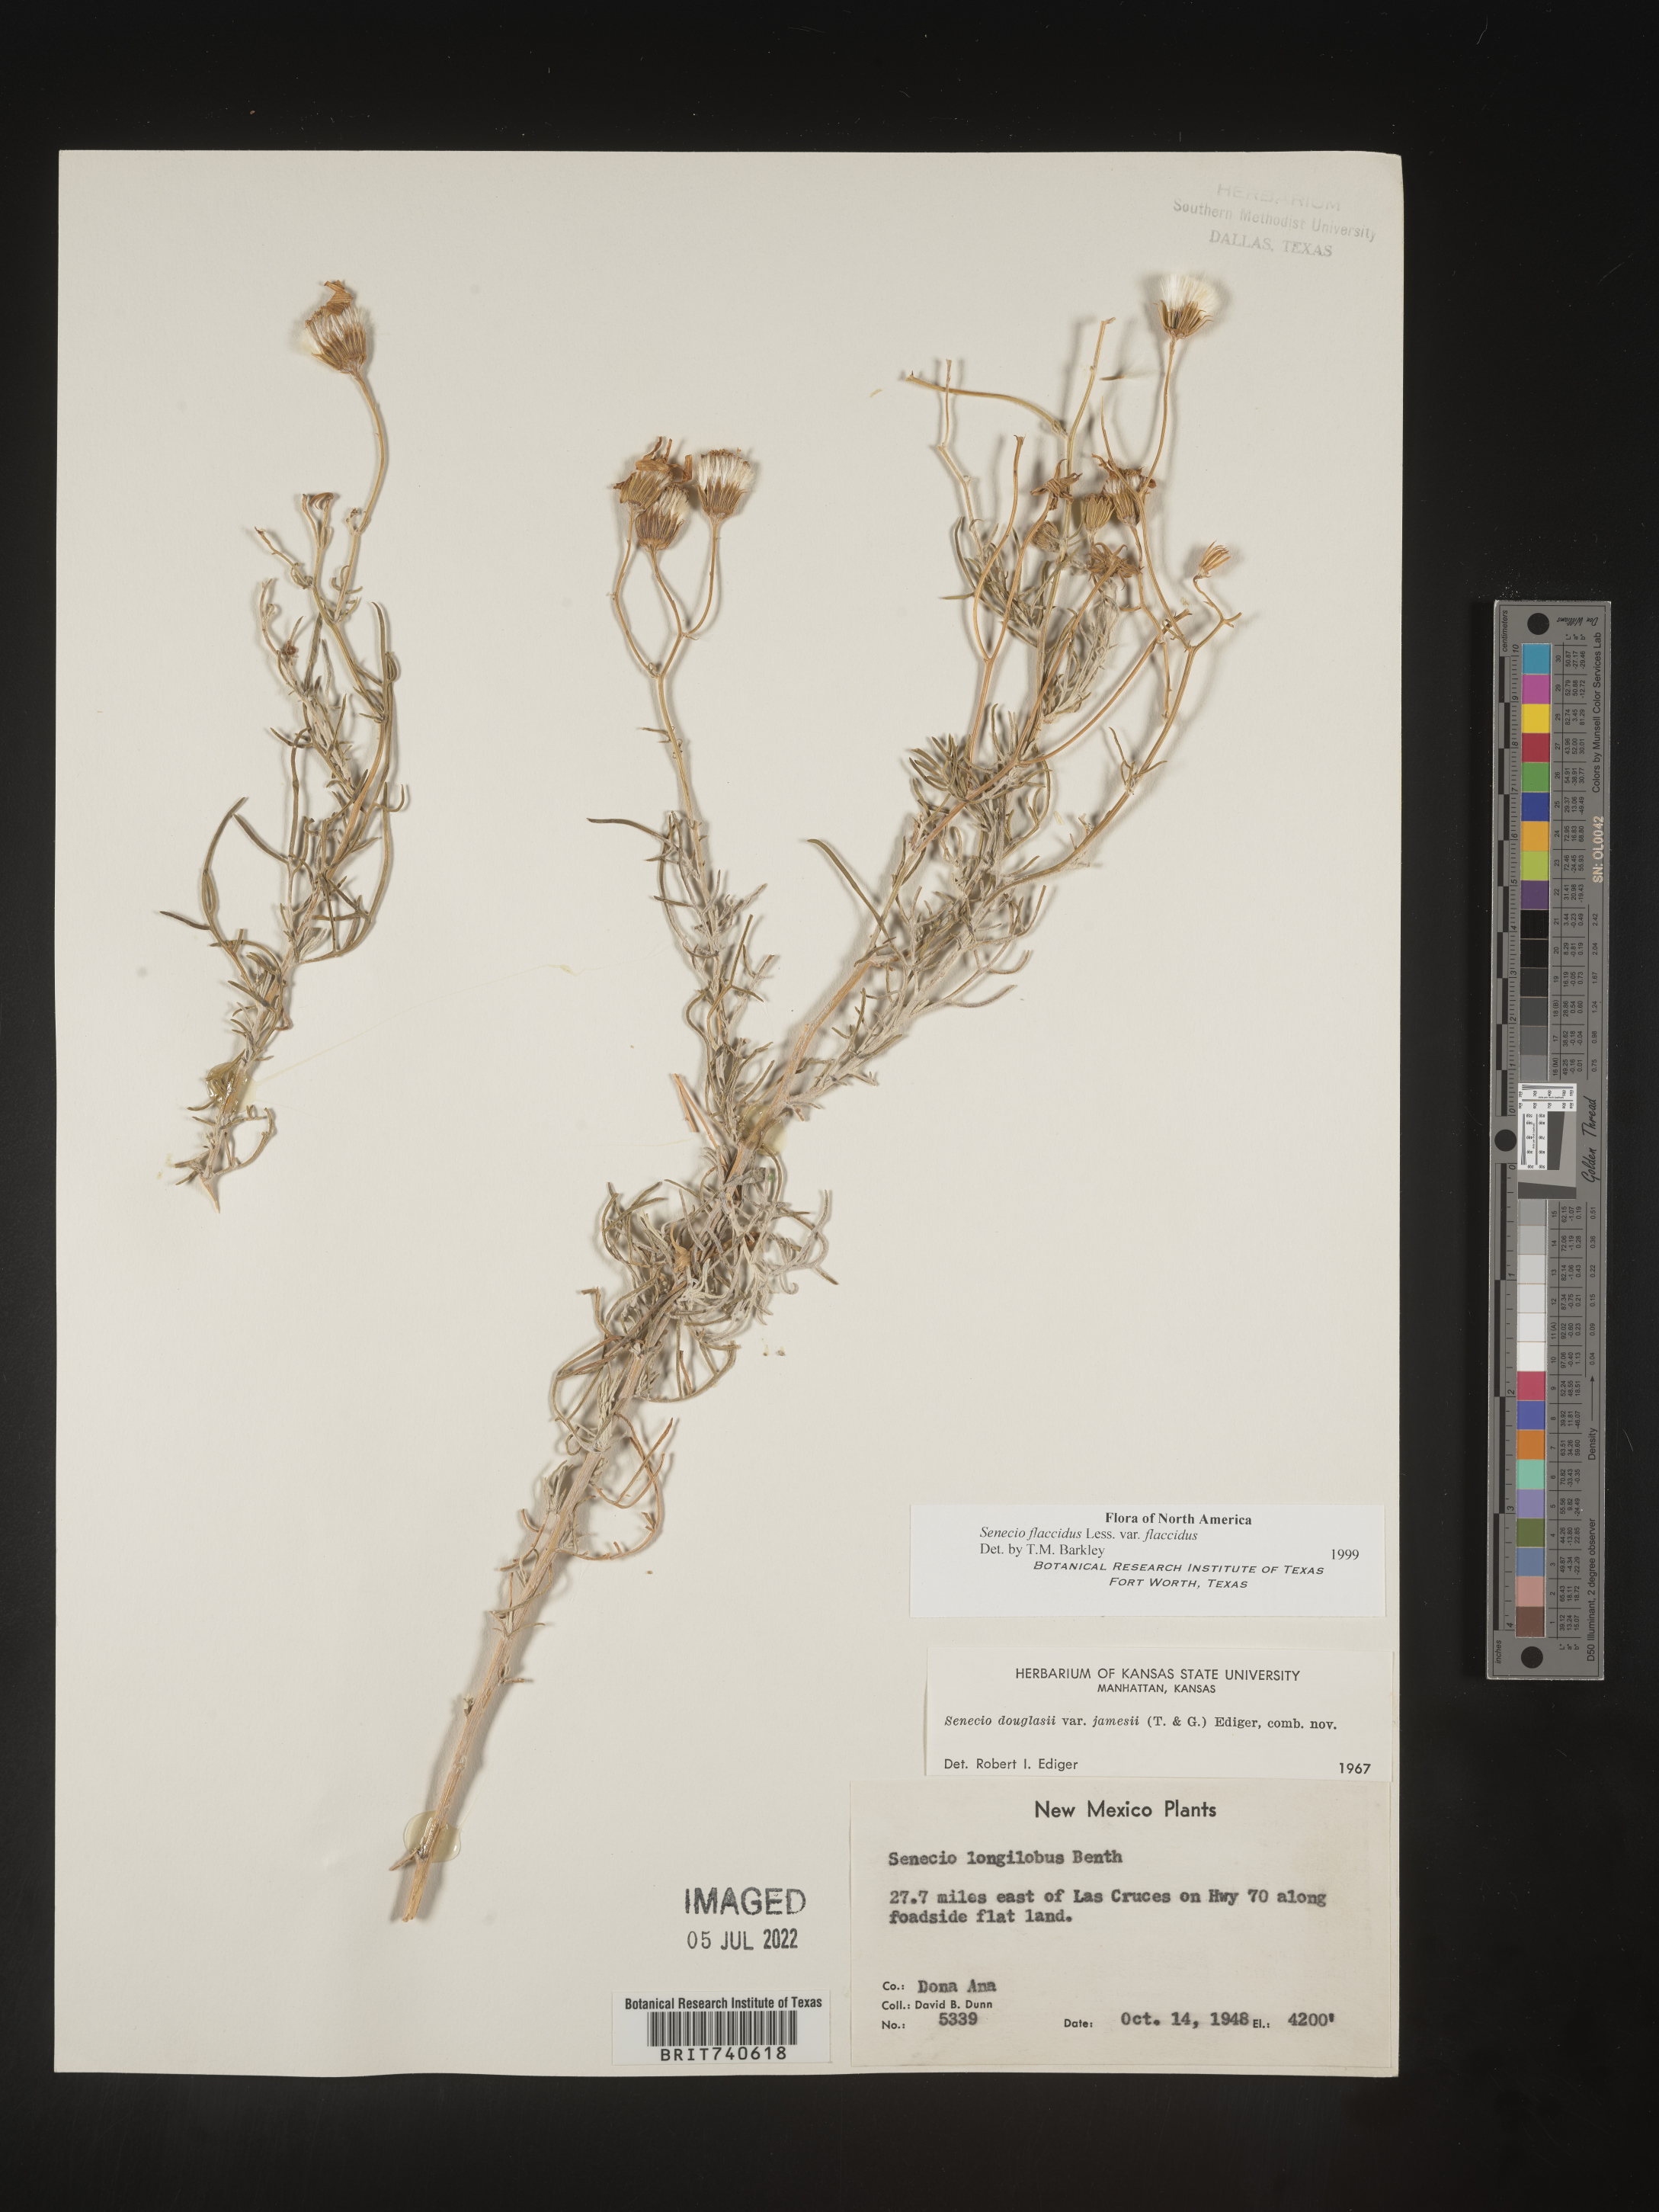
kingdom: Plantae
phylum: Tracheophyta
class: Magnoliopsida
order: Asterales
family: Asteraceae
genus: Senecio
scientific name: Senecio flaccidus
